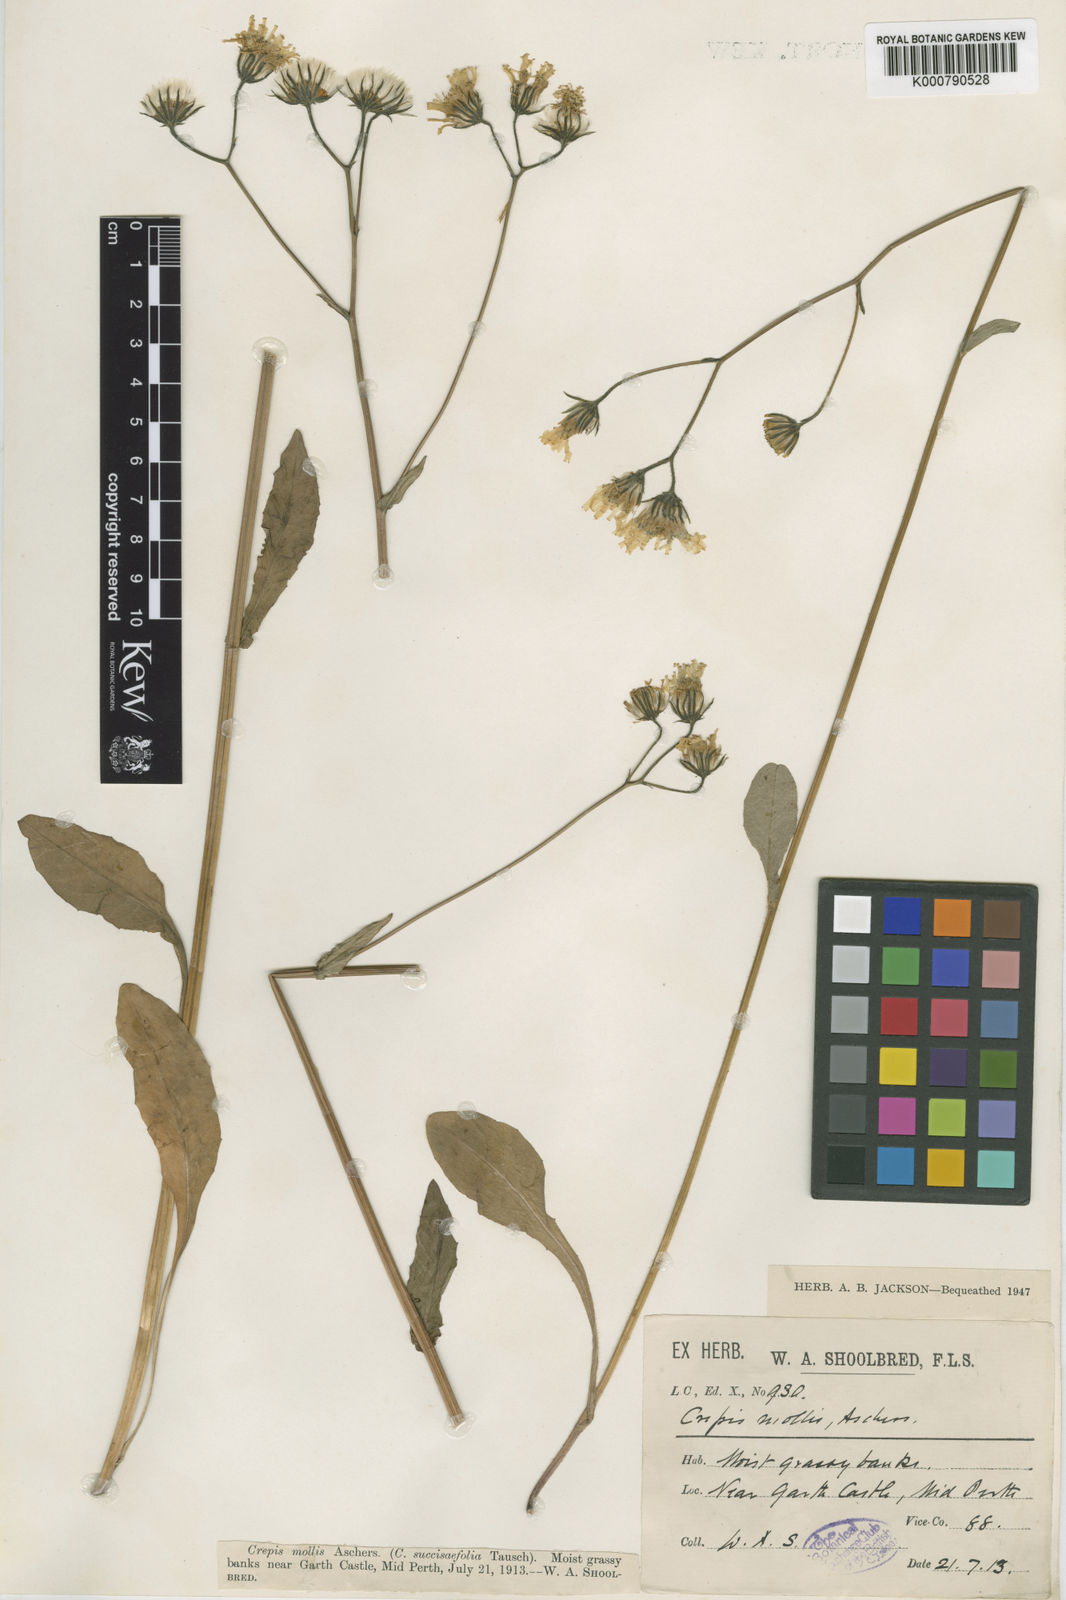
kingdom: Plantae
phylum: Tracheophyta
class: Magnoliopsida
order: Asterales
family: Asteraceae
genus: Crepis
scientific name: Crepis mollis
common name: Northern hawk's-beard
